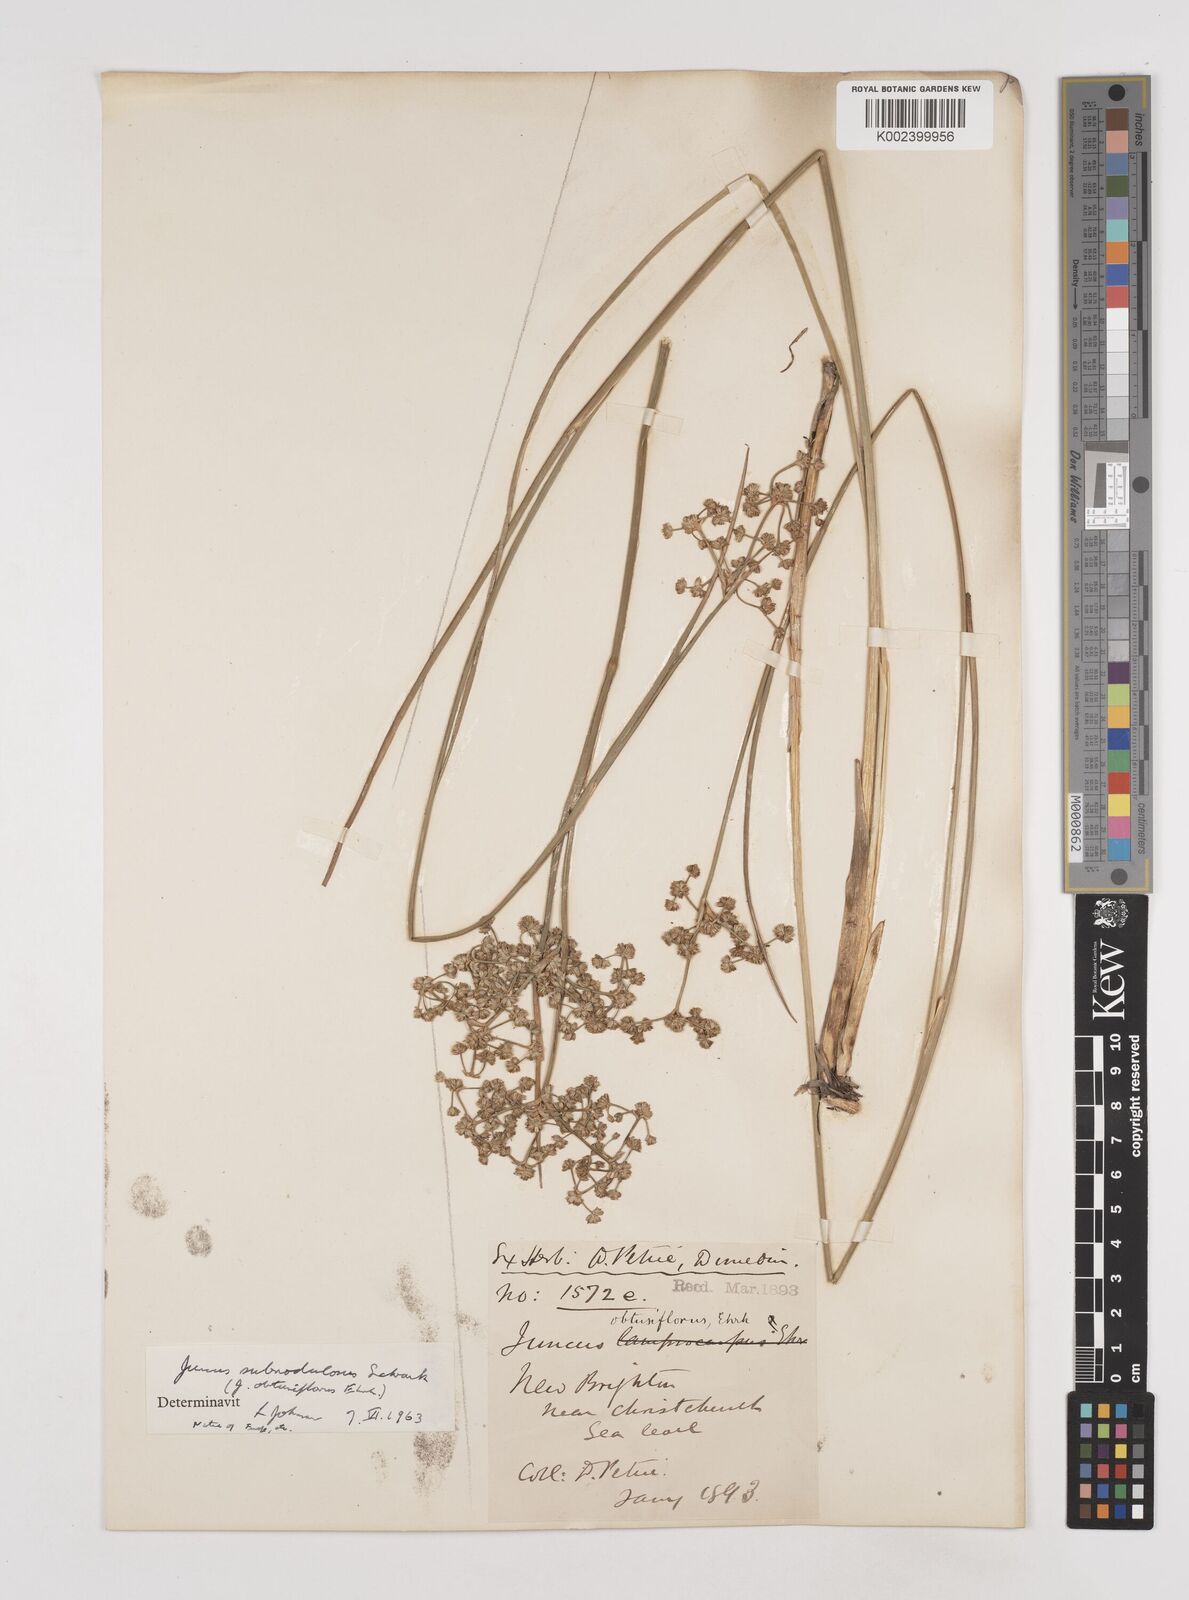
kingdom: Plantae
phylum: Tracheophyta
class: Liliopsida
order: Poales
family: Juncaceae
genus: Juncus
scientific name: Juncus subnodulosus
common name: Blunt-flowered rush
